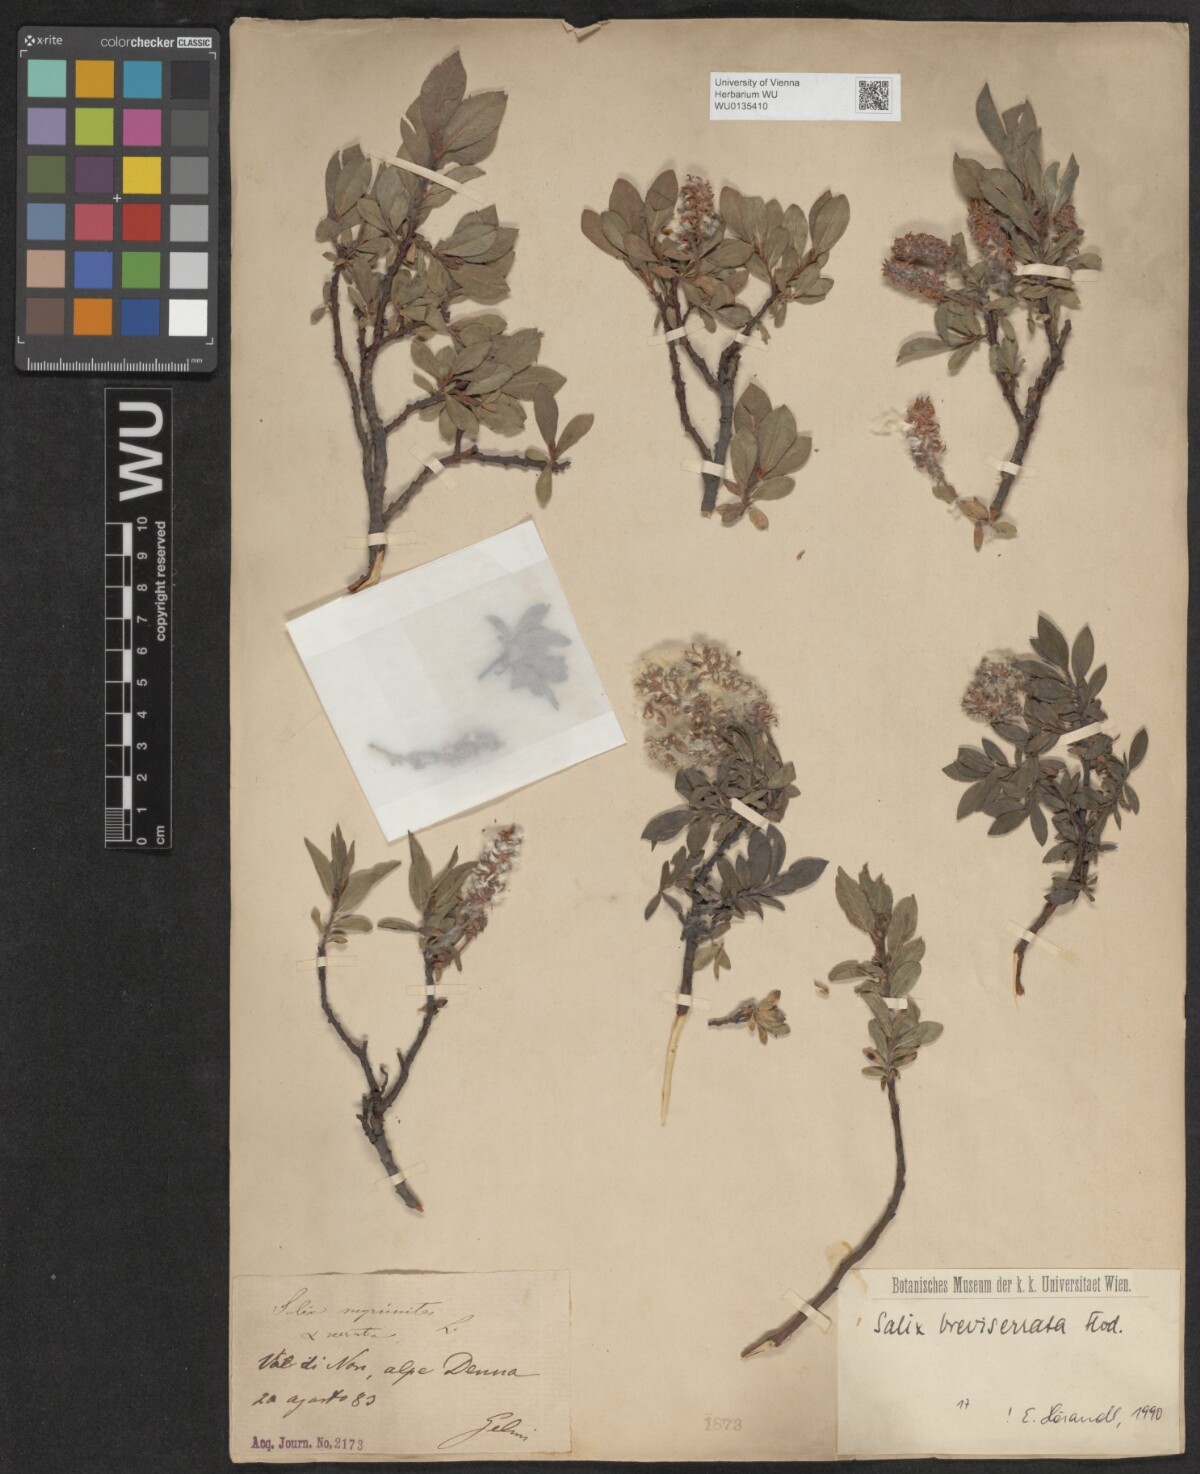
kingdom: Plantae
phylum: Tracheophyta
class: Magnoliopsida
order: Malpighiales
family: Salicaceae
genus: Salix
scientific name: Salix breviserrata
